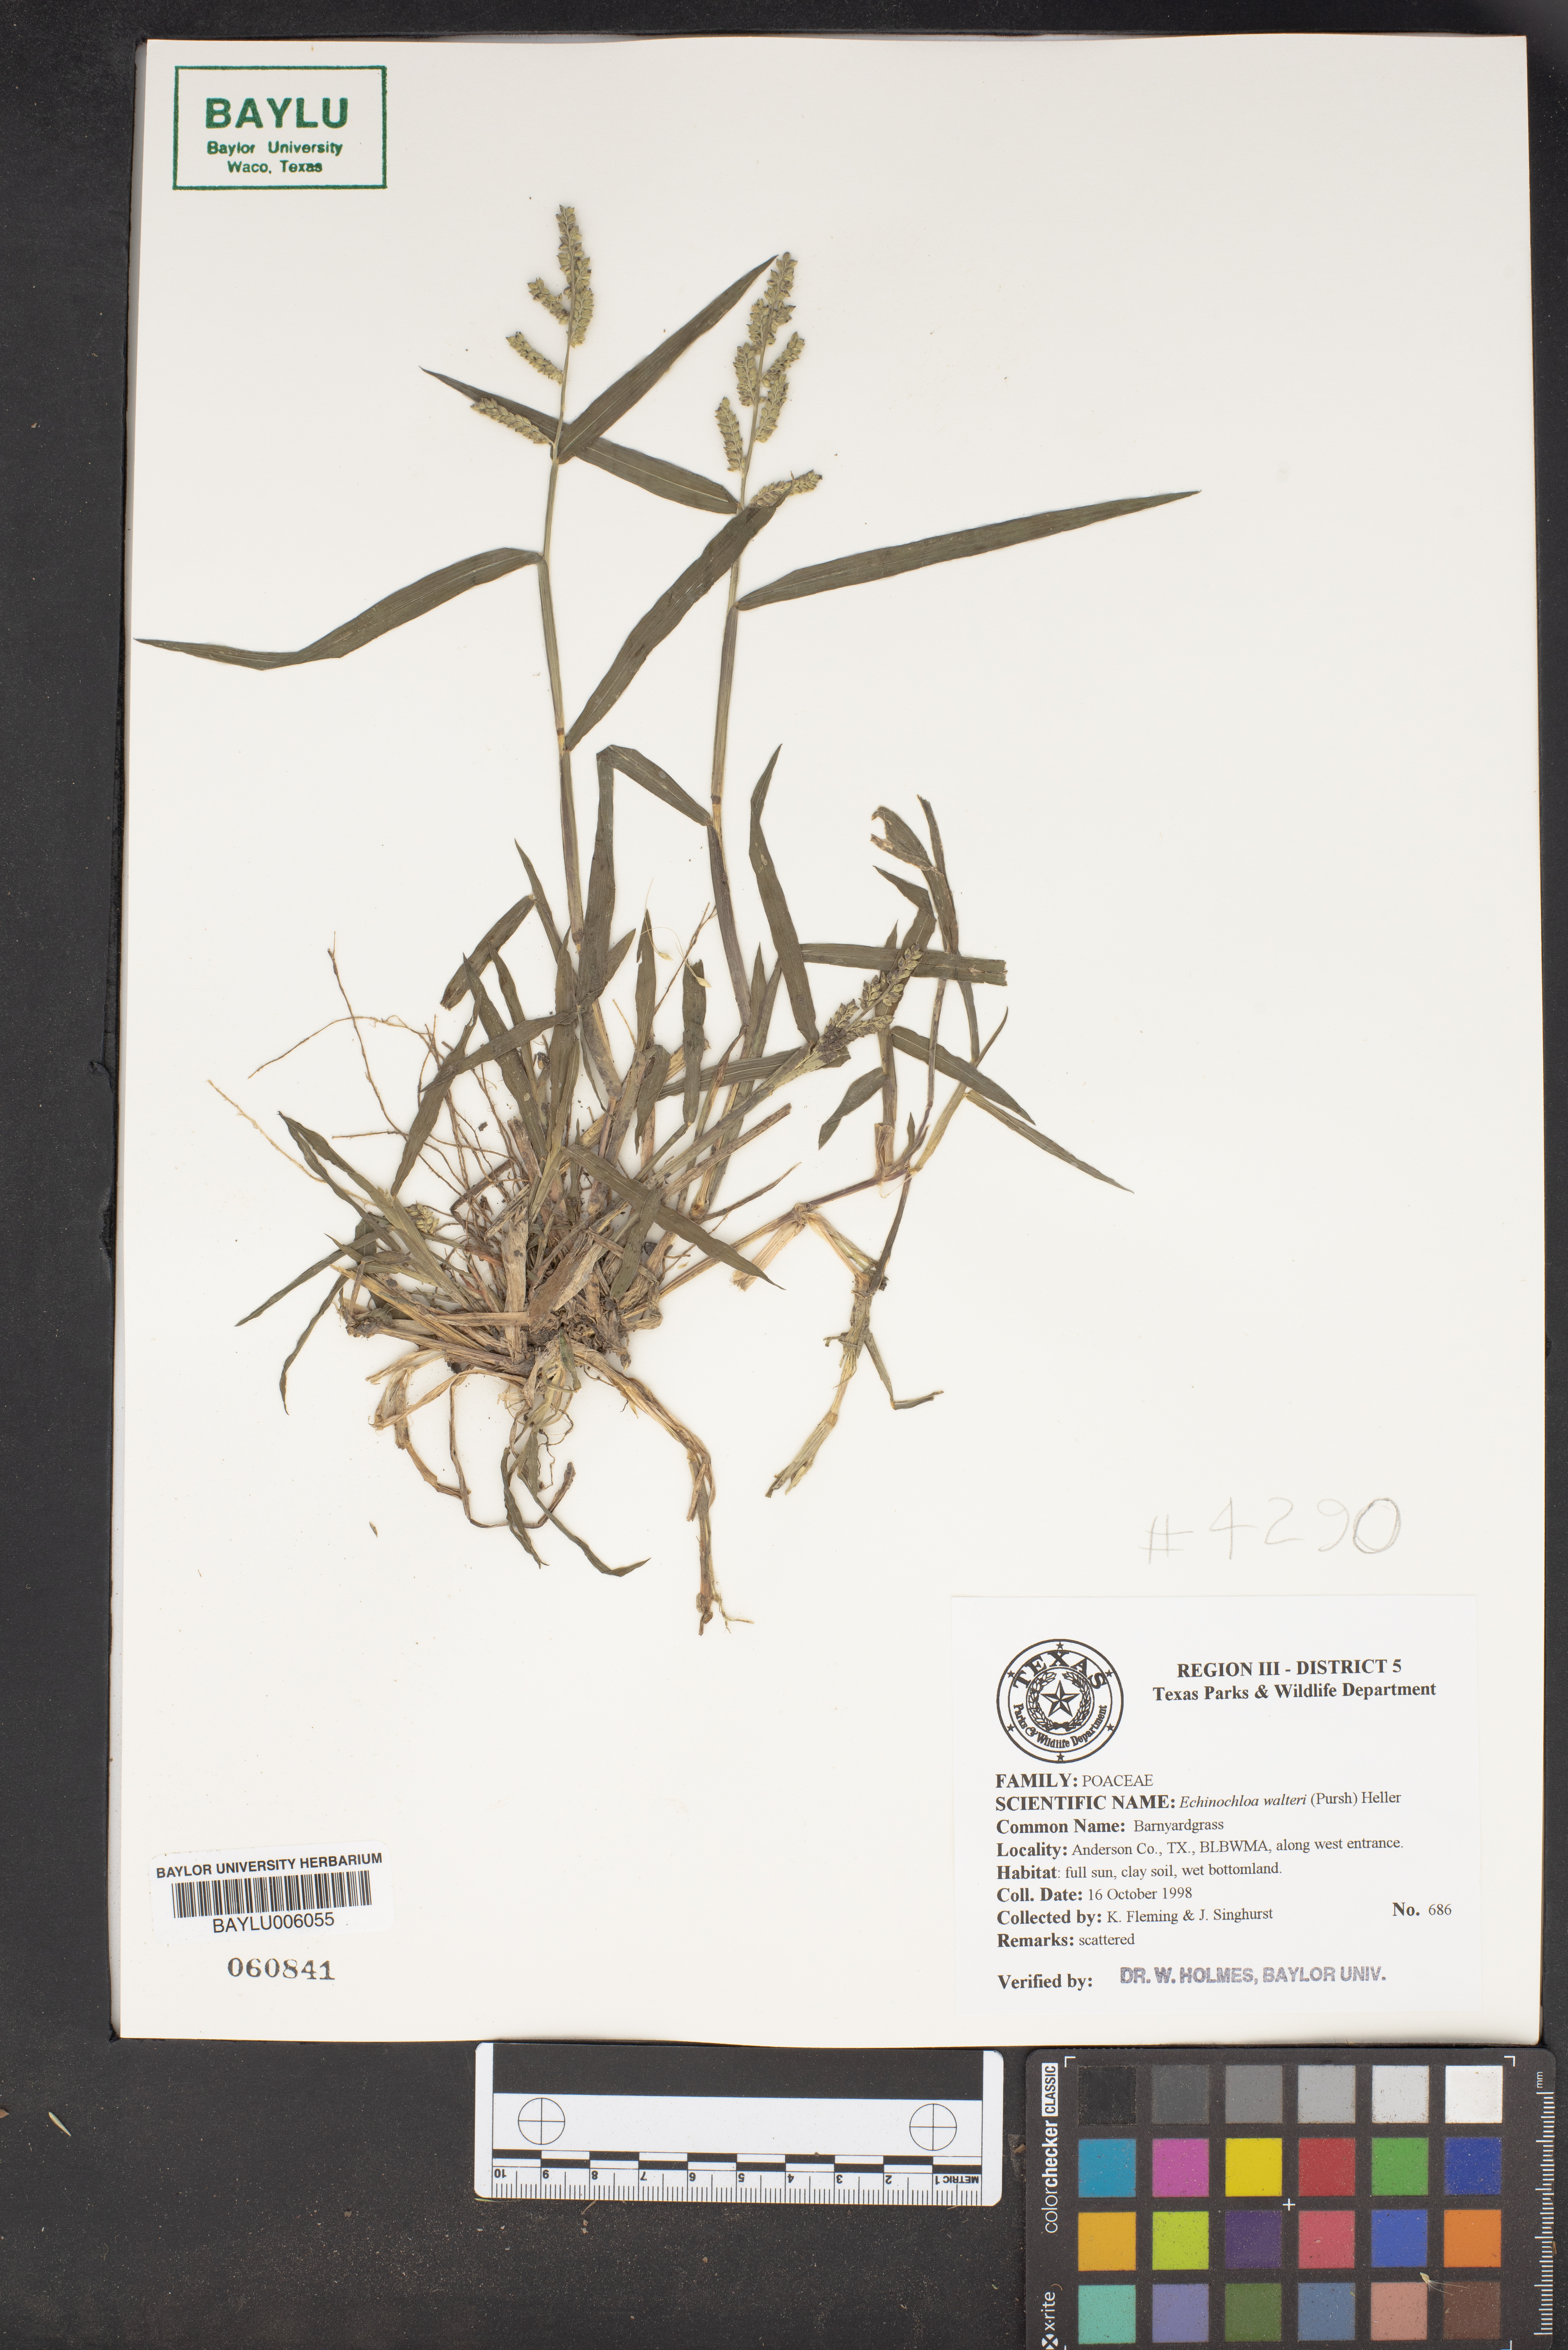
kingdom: Plantae
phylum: Tracheophyta
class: Liliopsida
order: Poales
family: Poaceae
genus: Echinochloa
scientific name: Echinochloa walteri
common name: Coast barnyard grass
